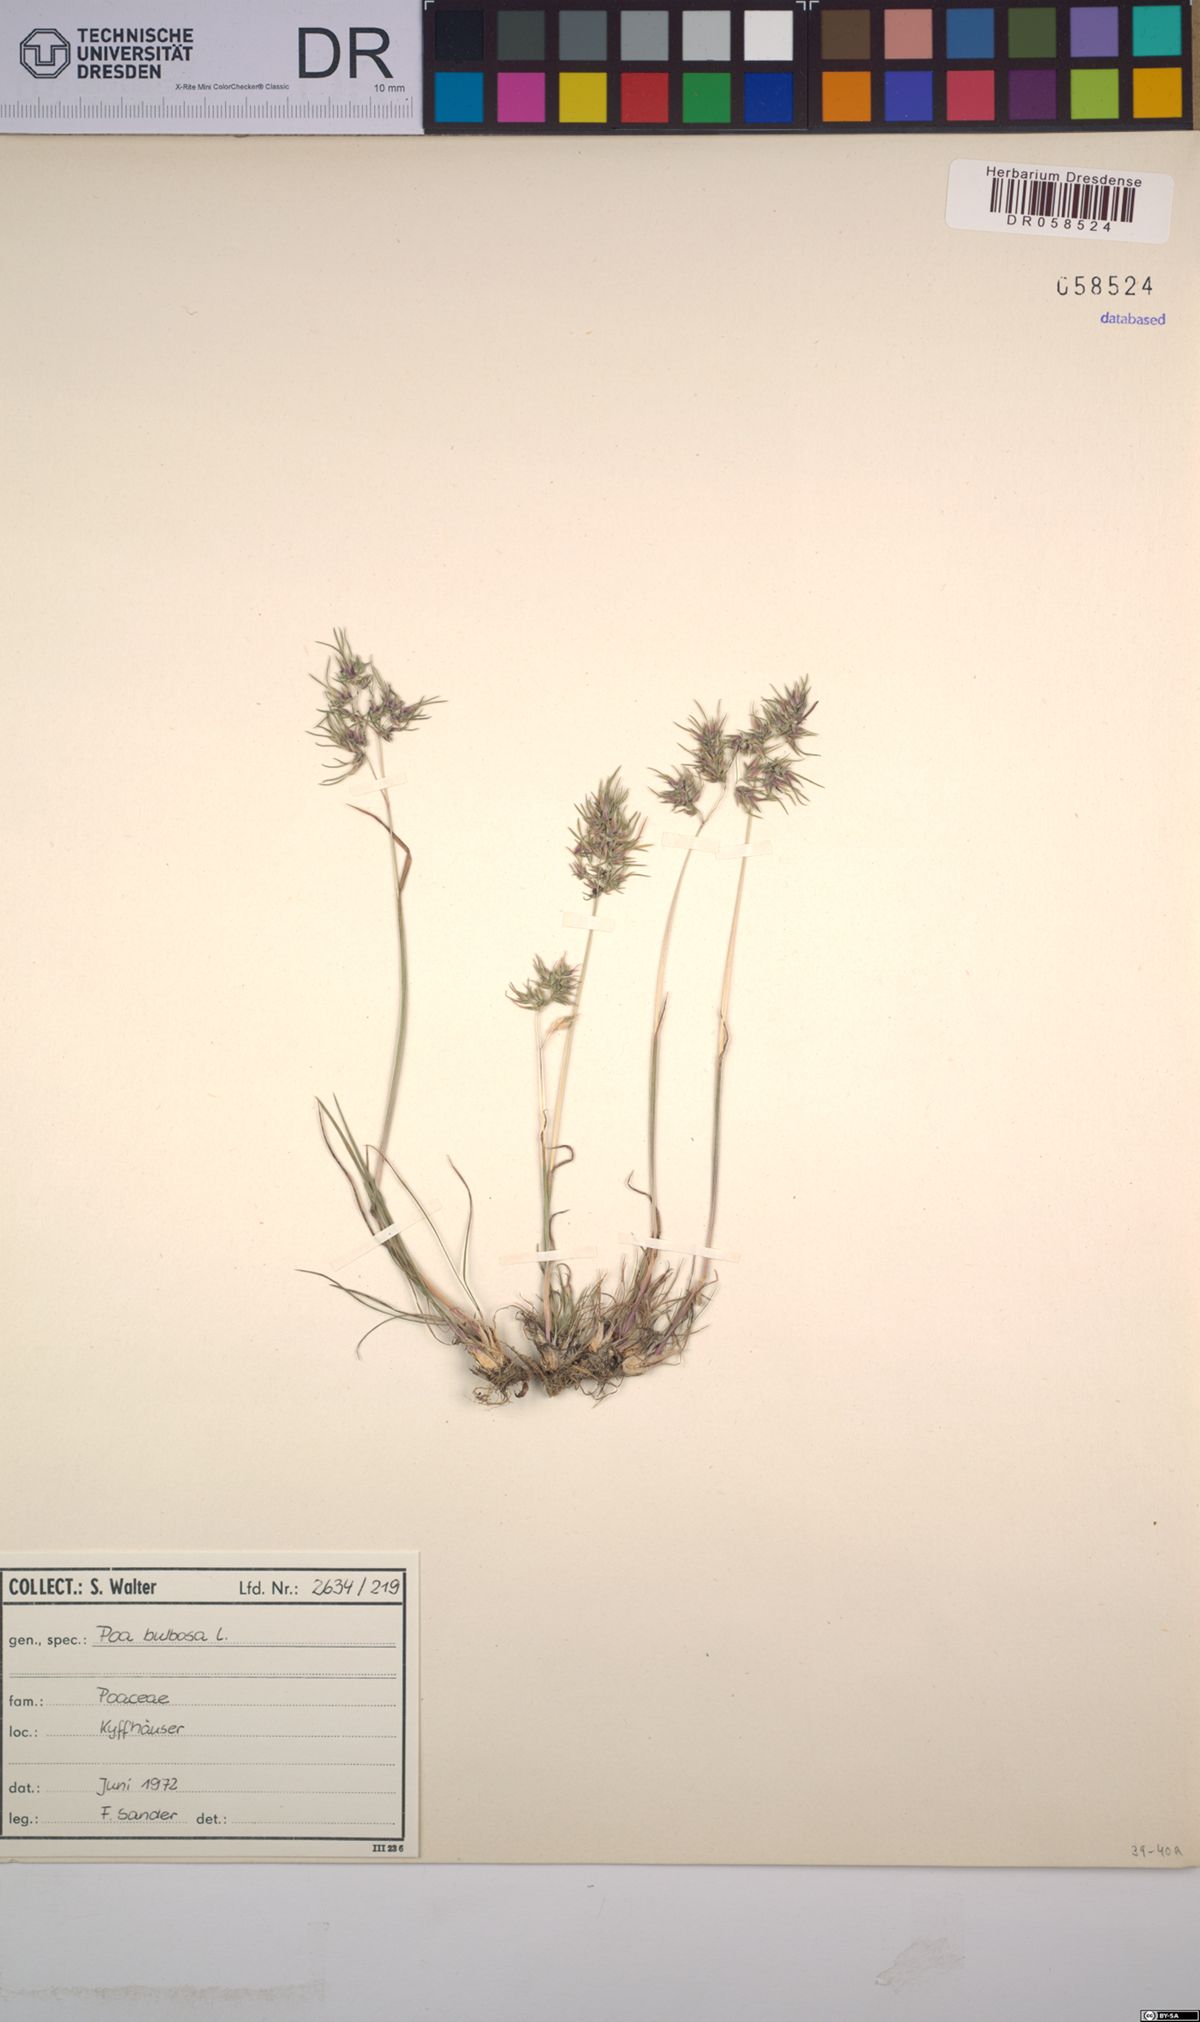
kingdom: Plantae
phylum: Tracheophyta
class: Liliopsida
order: Poales
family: Poaceae
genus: Poa
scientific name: Poa bulbosa
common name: Bulbous bluegrass
